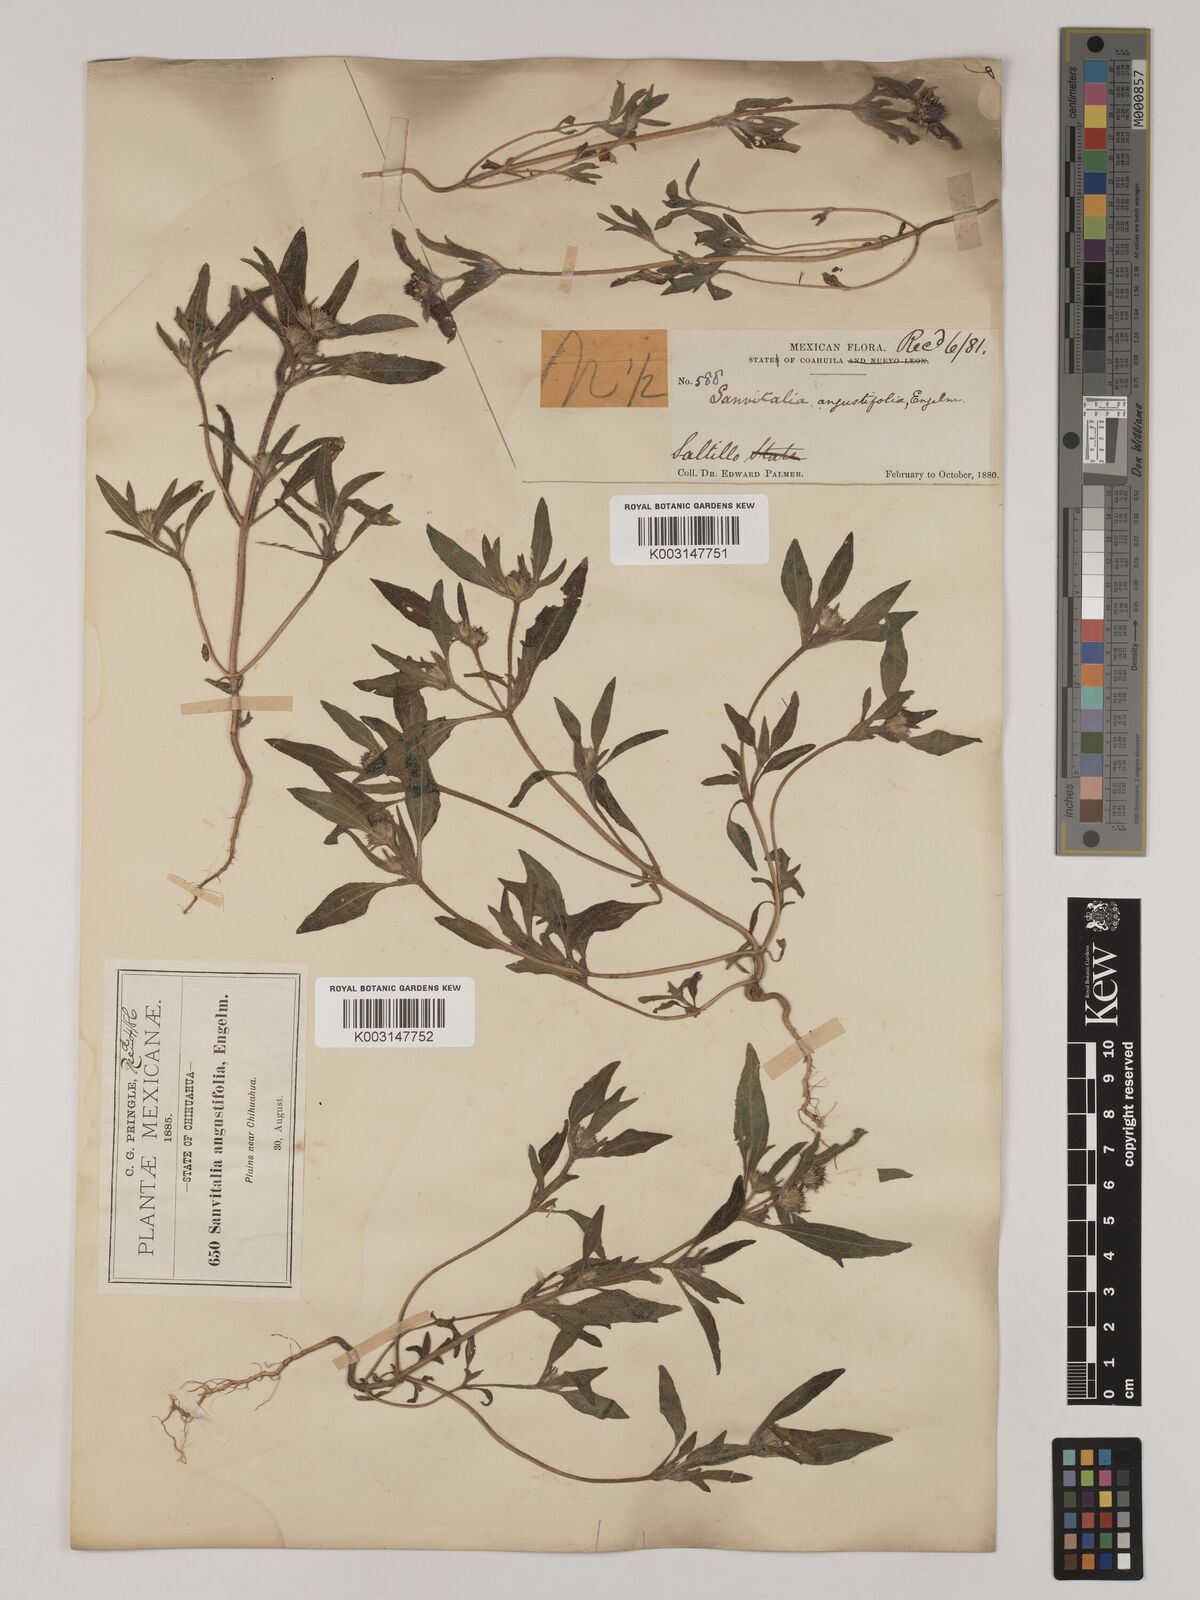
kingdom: Plantae
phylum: Tracheophyta
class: Magnoliopsida
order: Asterales
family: Asteraceae
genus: Sanvitalia
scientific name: Sanvitalia angustifolia
